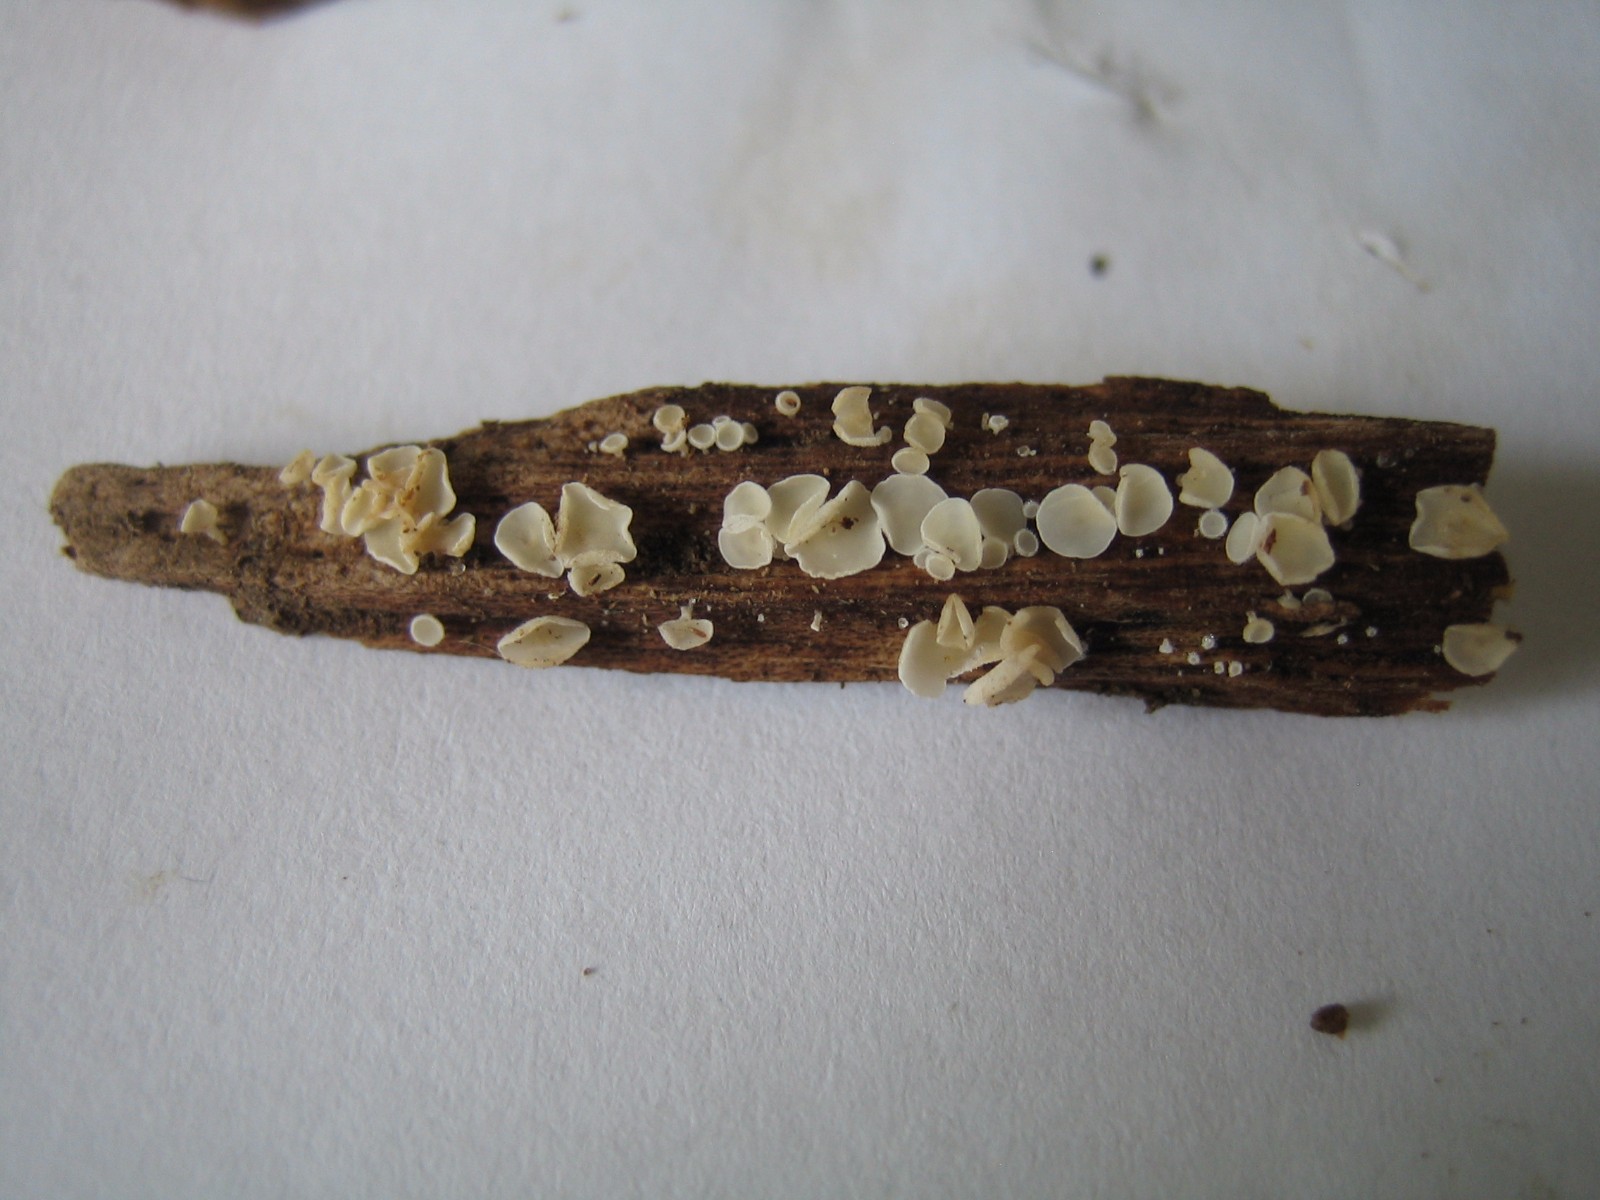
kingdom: Fungi
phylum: Ascomycota
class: Leotiomycetes
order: Helotiales
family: Lachnaceae
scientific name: Lachnaceae
